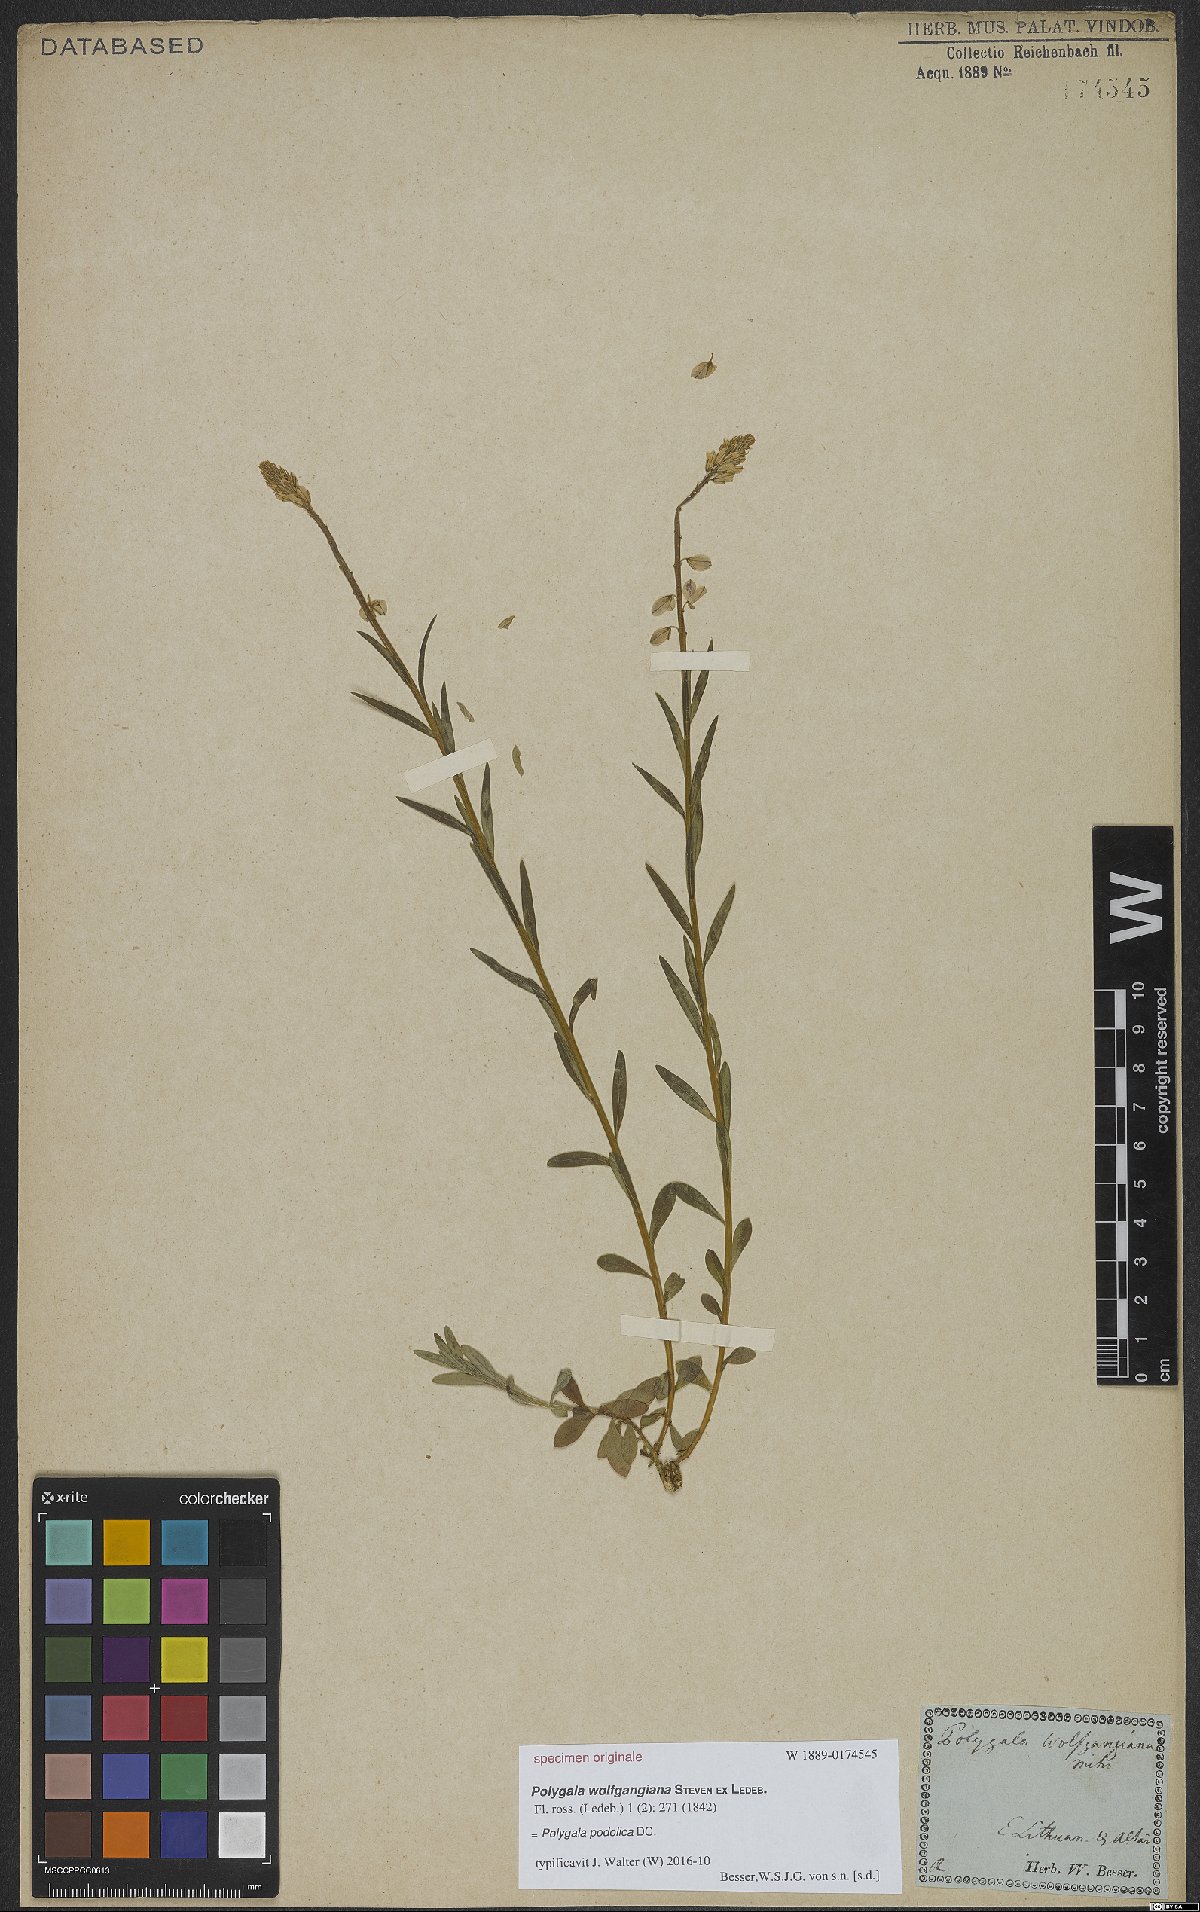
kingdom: Plantae
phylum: Tracheophyta
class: Magnoliopsida
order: Fabales
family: Polygalaceae
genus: Polygala
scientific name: Polygala comosa
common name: Tufted milkwort
